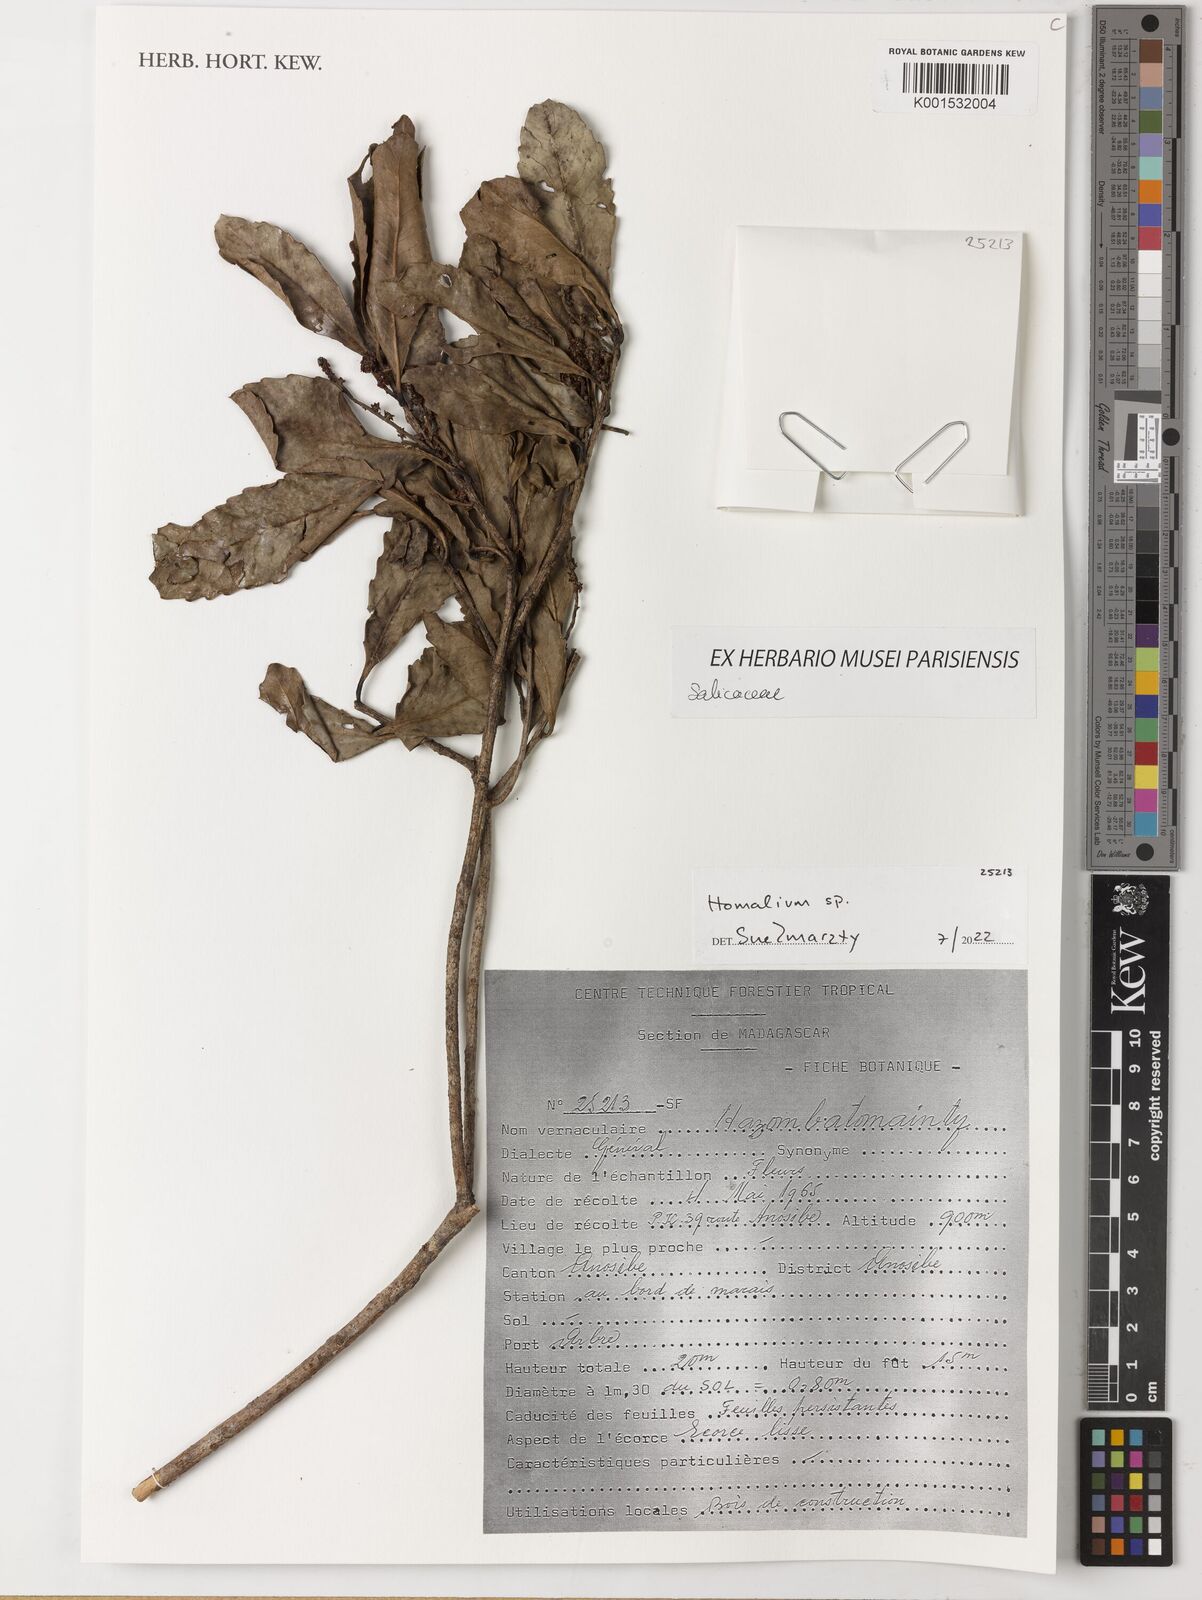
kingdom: Plantae
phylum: Tracheophyta
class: Magnoliopsida
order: Malpighiales
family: Salicaceae
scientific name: Salicaceae
